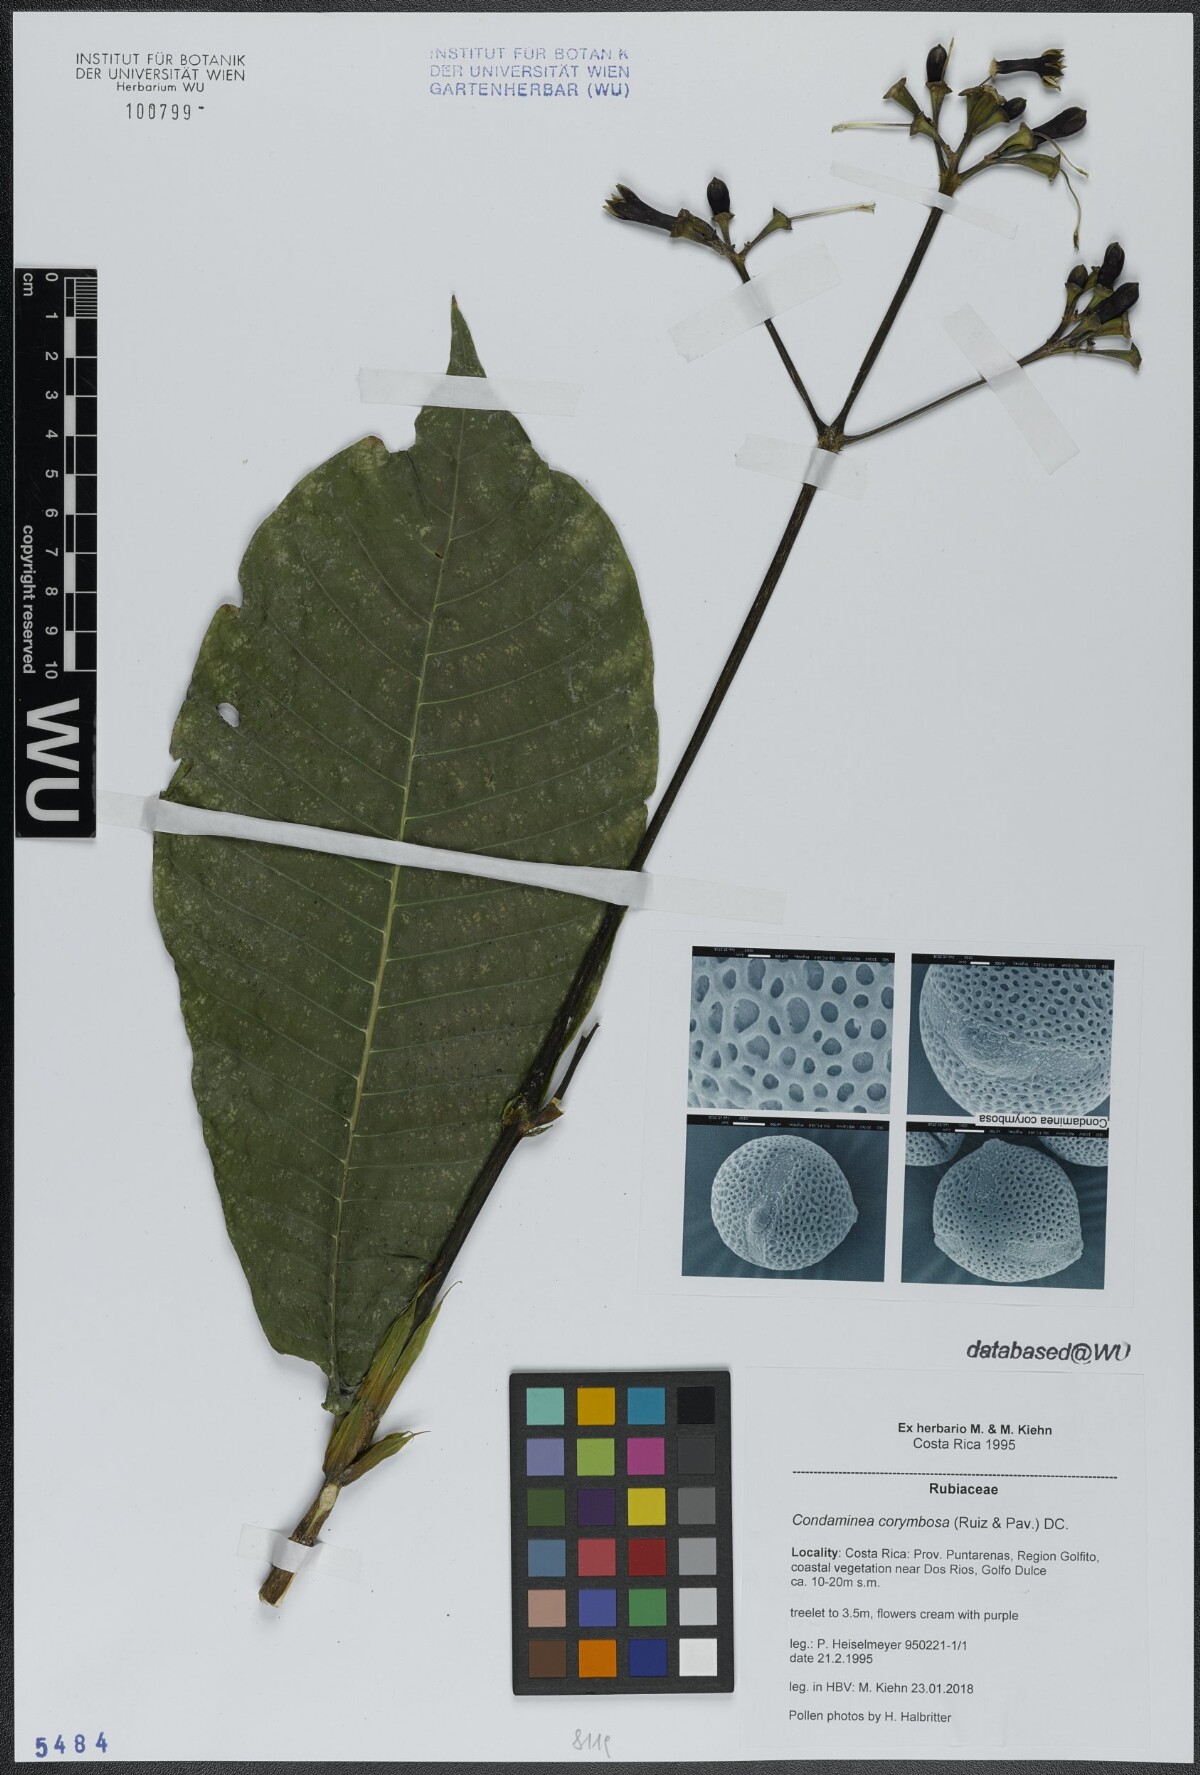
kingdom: Plantae
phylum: Tracheophyta
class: Magnoliopsida
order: Gentianales
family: Rubiaceae
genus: Condaminea
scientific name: Condaminea corymbosa
